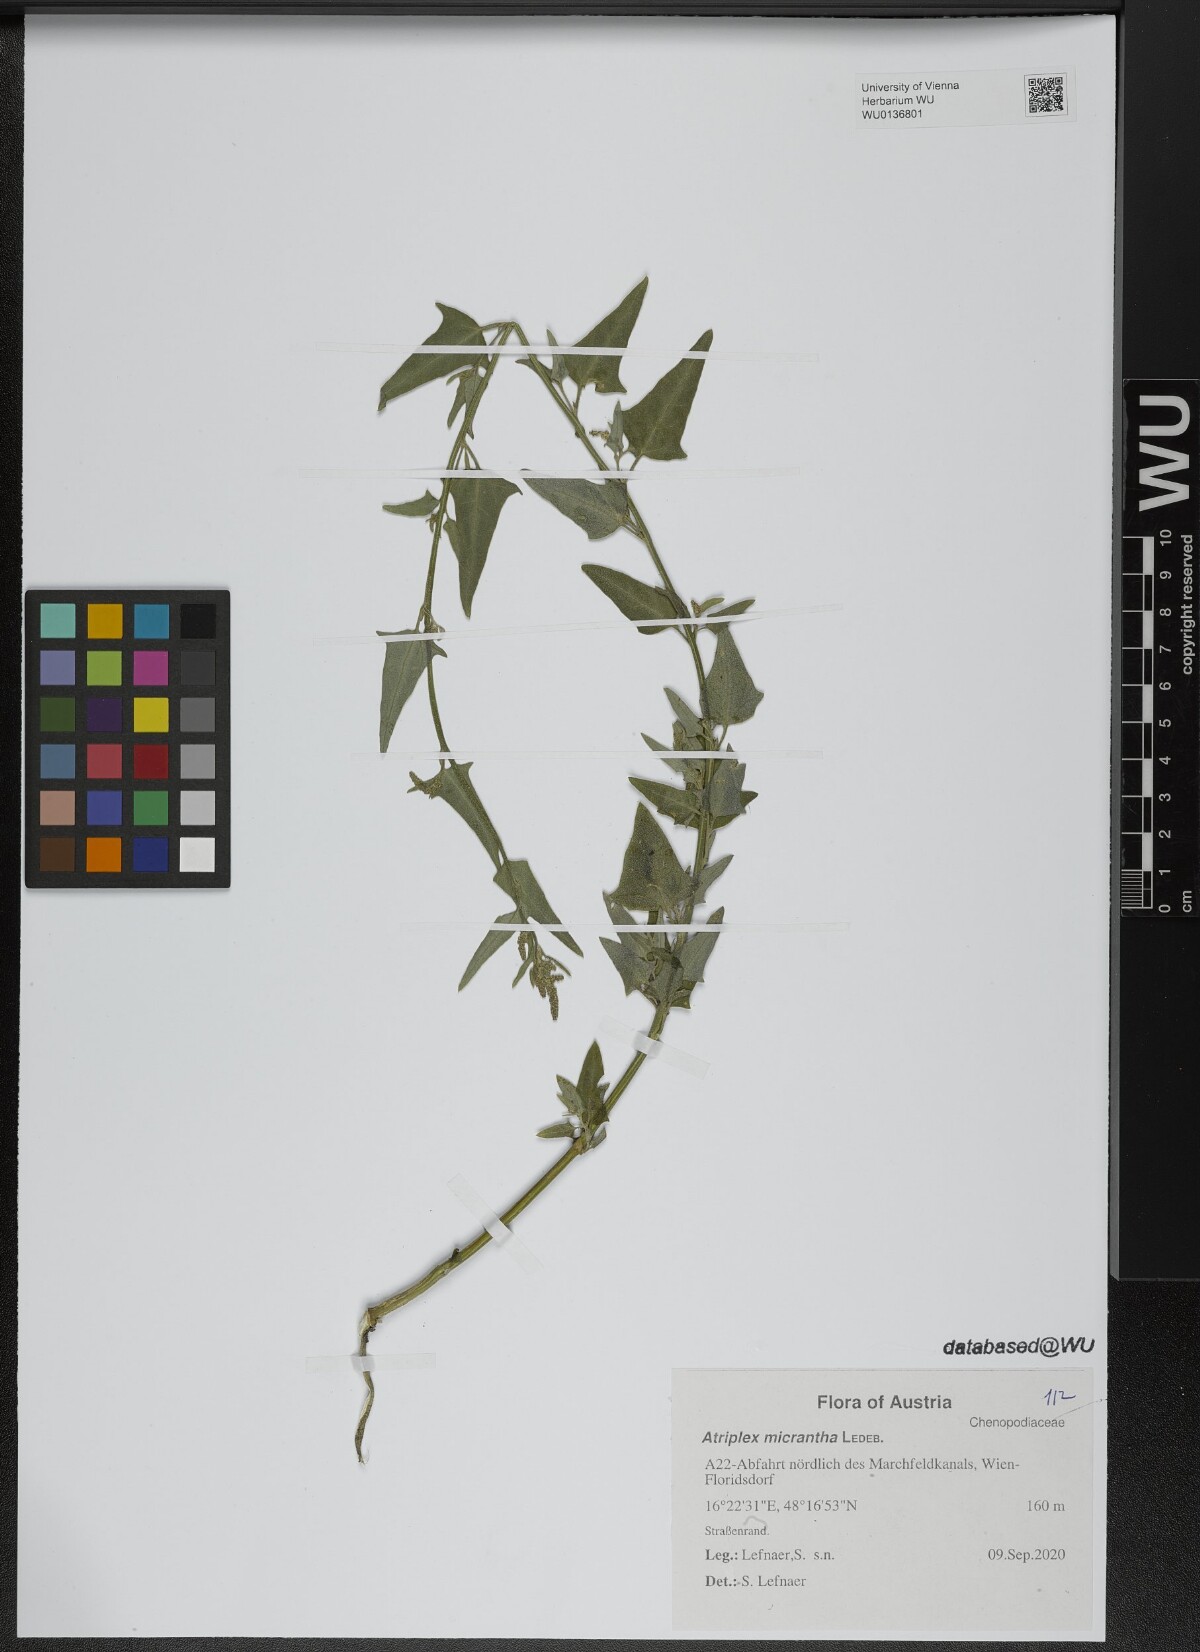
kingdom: Plantae
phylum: Tracheophyta
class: Magnoliopsida
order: Caryophyllales
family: Amaranthaceae
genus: Atriplex
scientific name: Atriplex micrantha
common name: Twoscale saltbush
